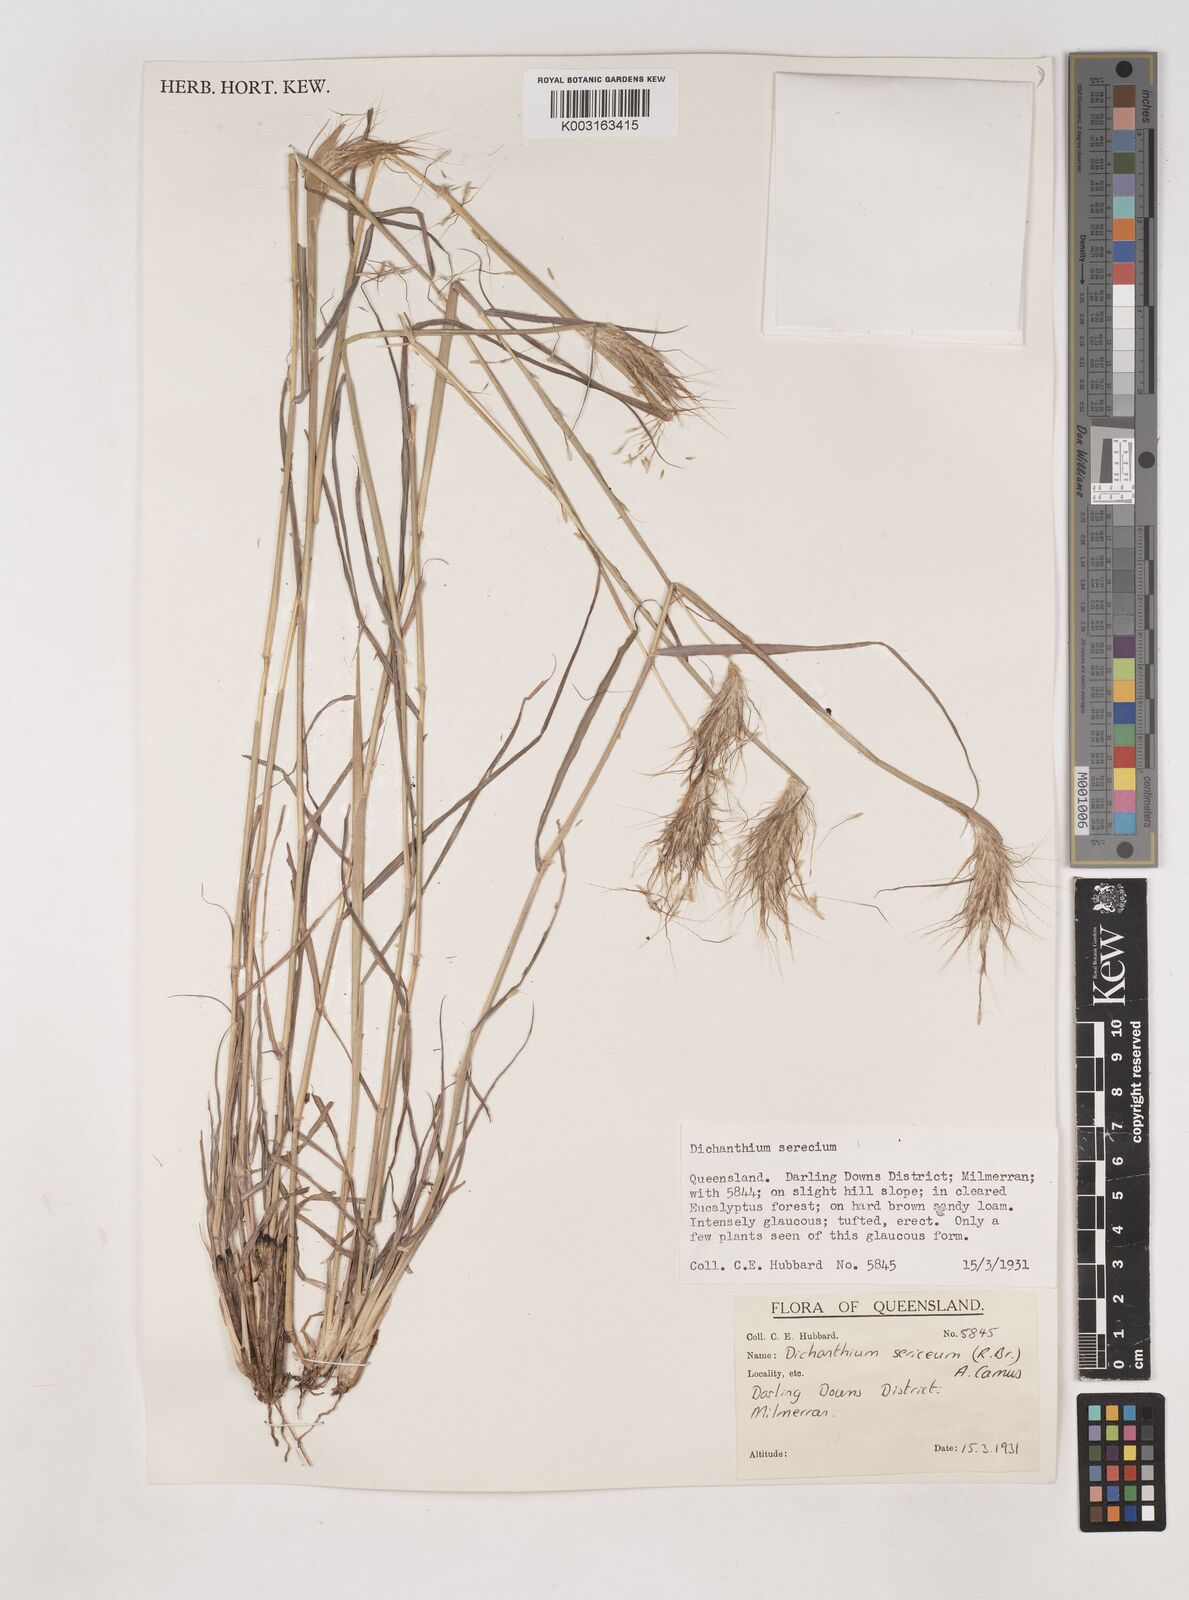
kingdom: Plantae
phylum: Tracheophyta
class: Liliopsida
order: Poales
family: Poaceae
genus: Dichanthium
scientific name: Dichanthium sericeum
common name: Silky bluestem
